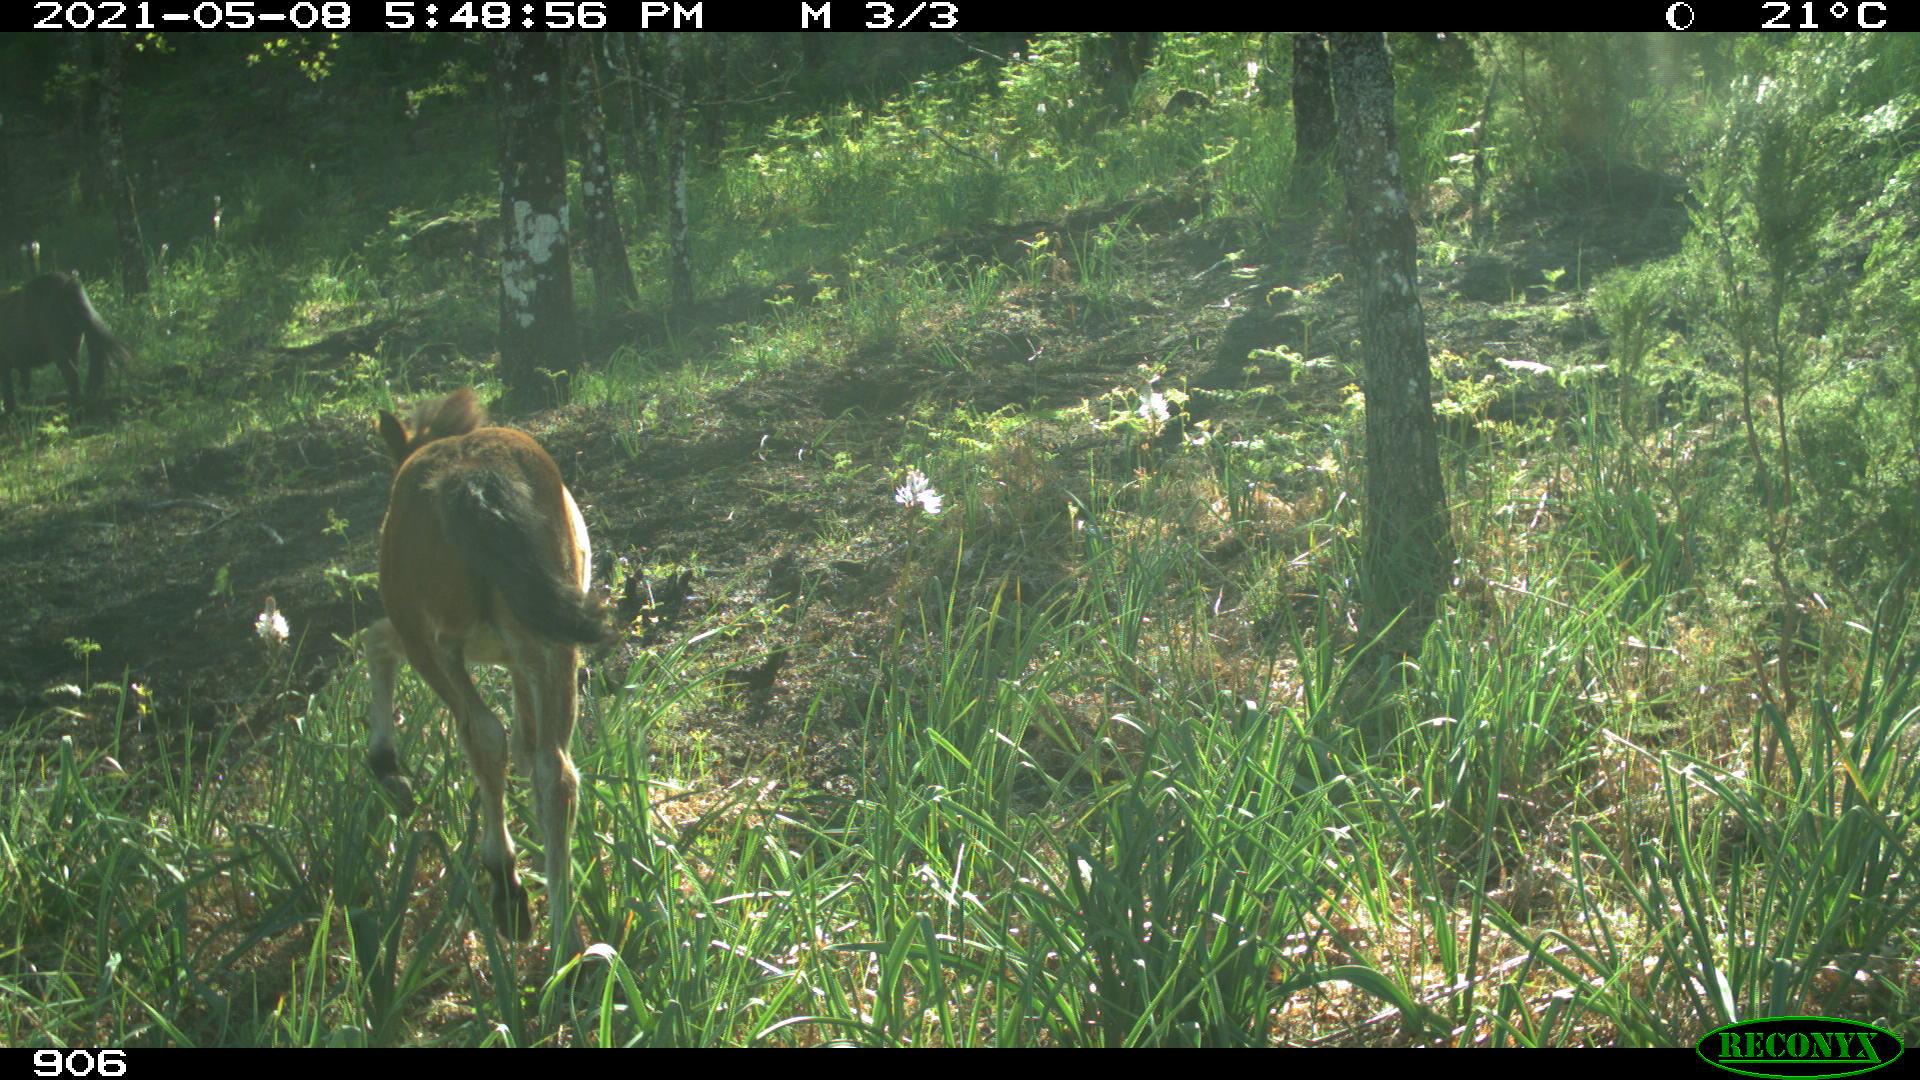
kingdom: Animalia
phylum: Chordata
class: Mammalia
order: Perissodactyla
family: Equidae
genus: Equus
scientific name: Equus caballus
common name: Horse
